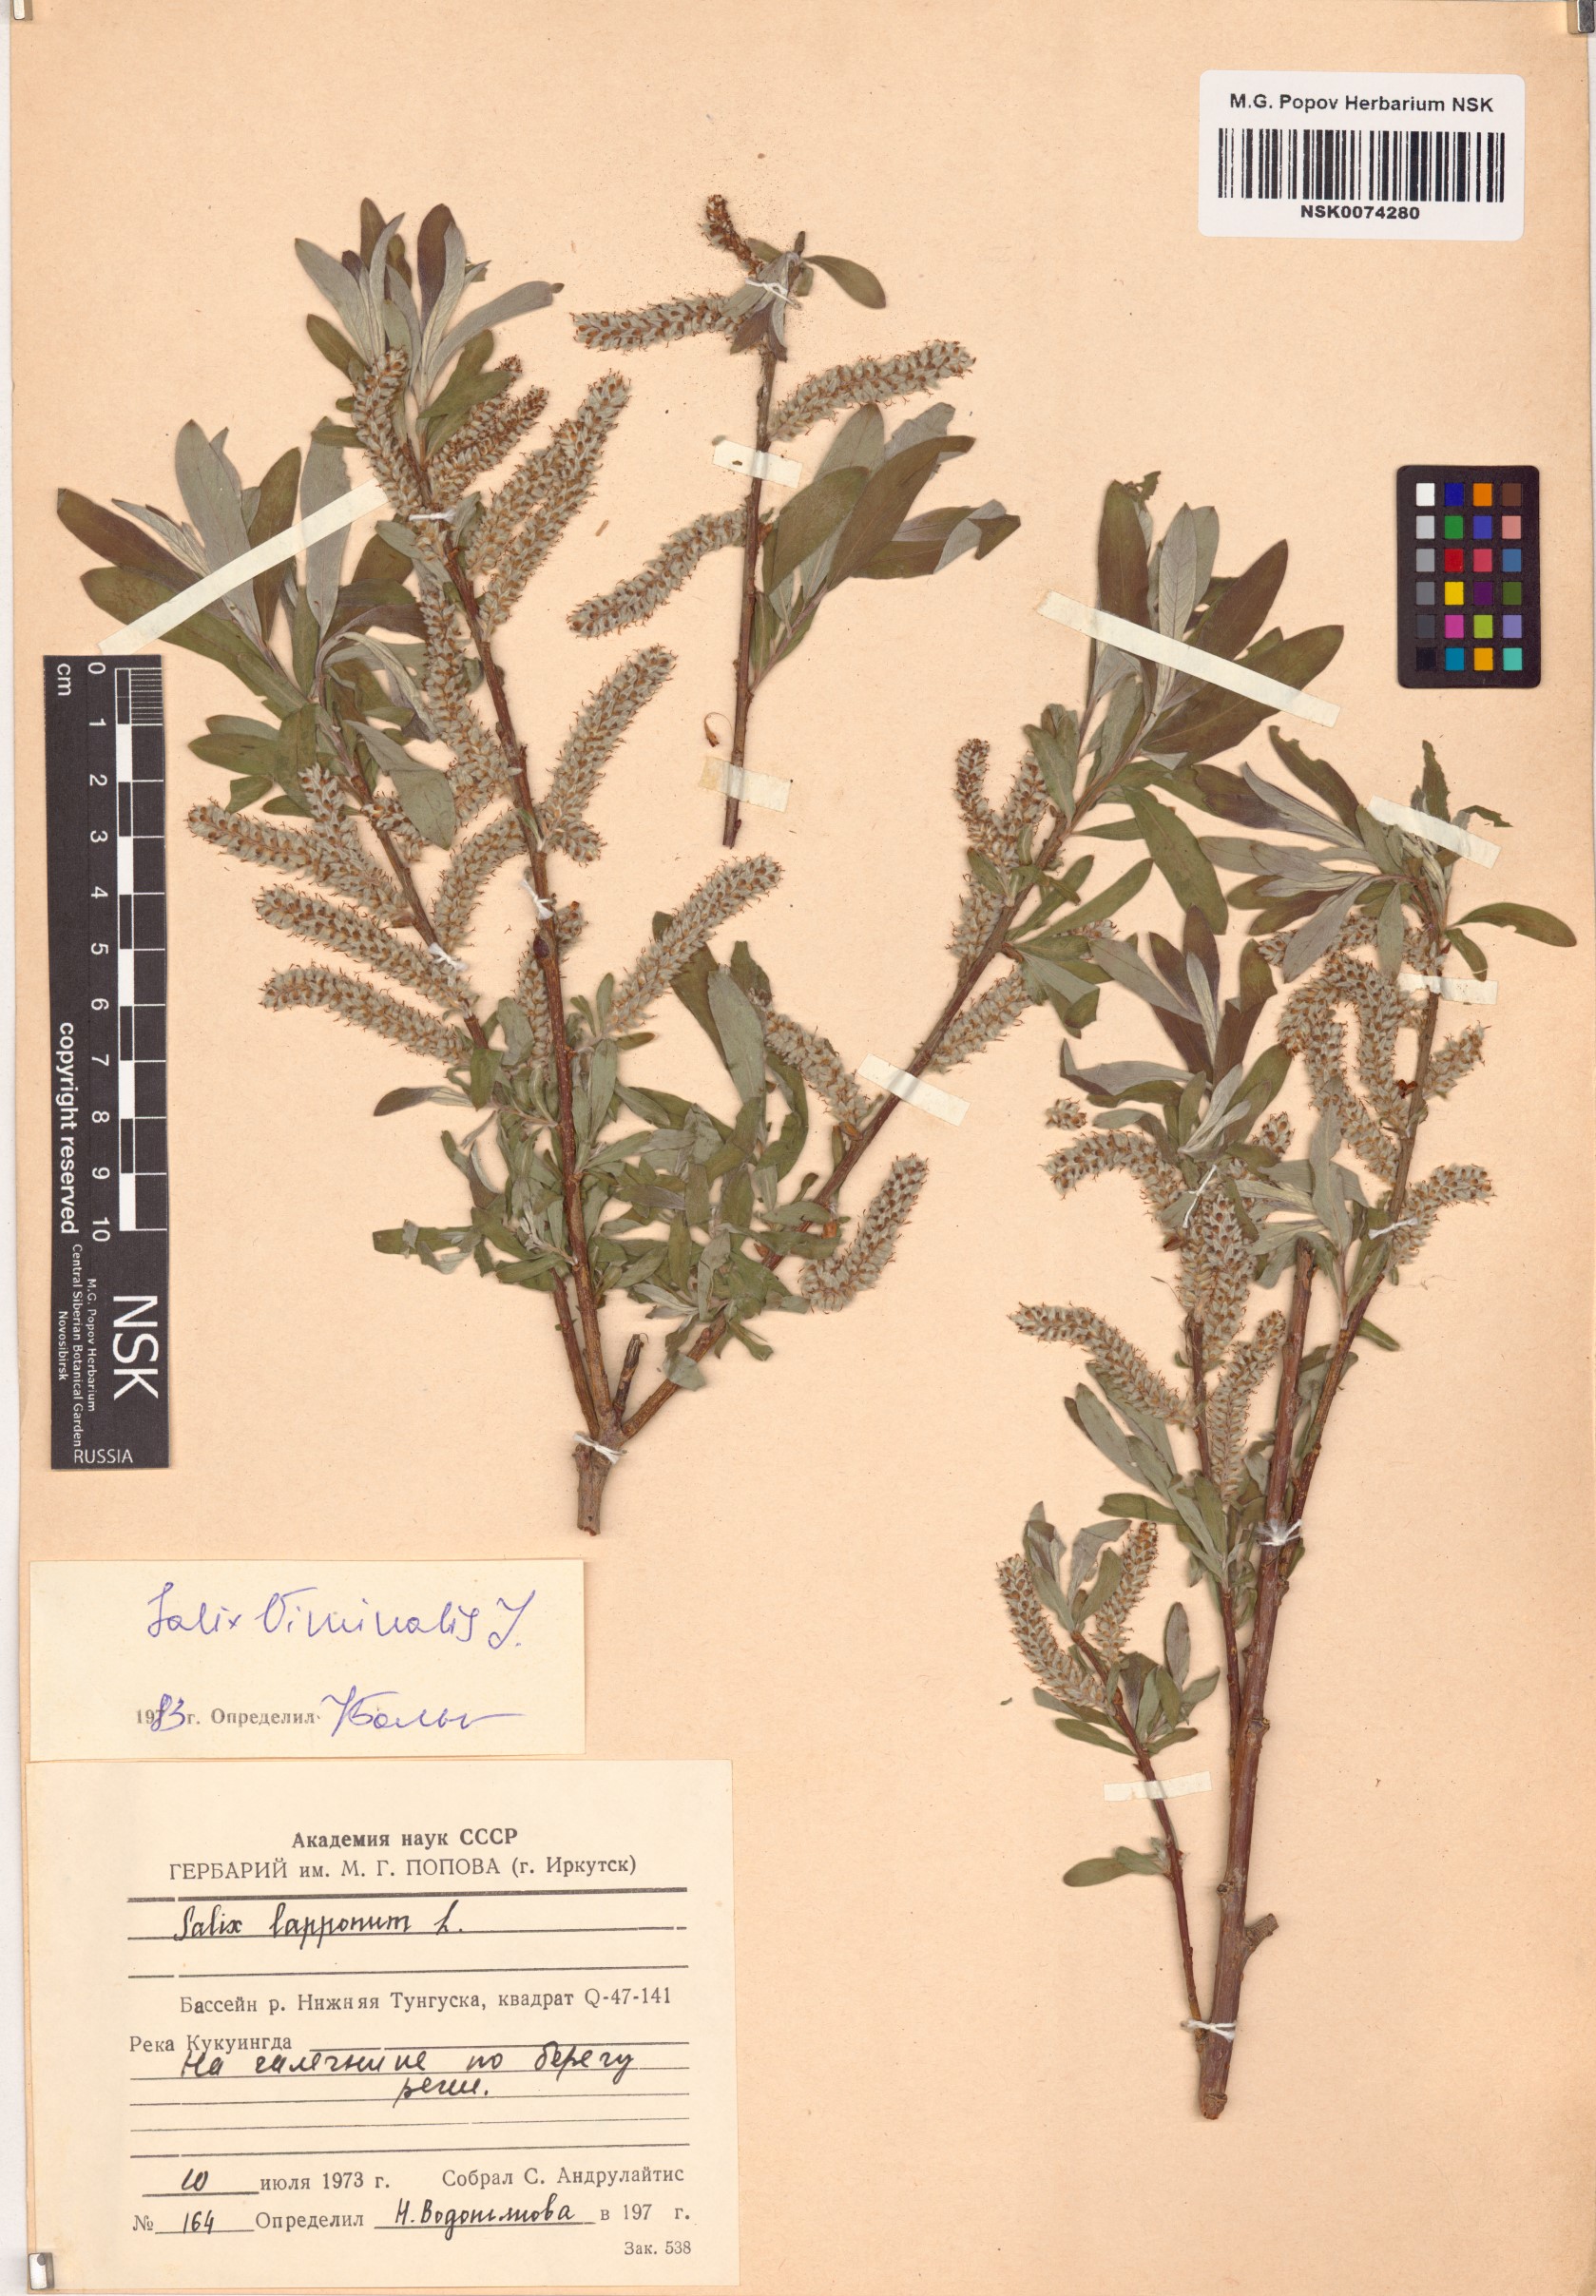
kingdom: Plantae
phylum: Tracheophyta
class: Magnoliopsida
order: Malpighiales
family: Salicaceae
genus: Salix
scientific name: Salix viminalis
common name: Osier
